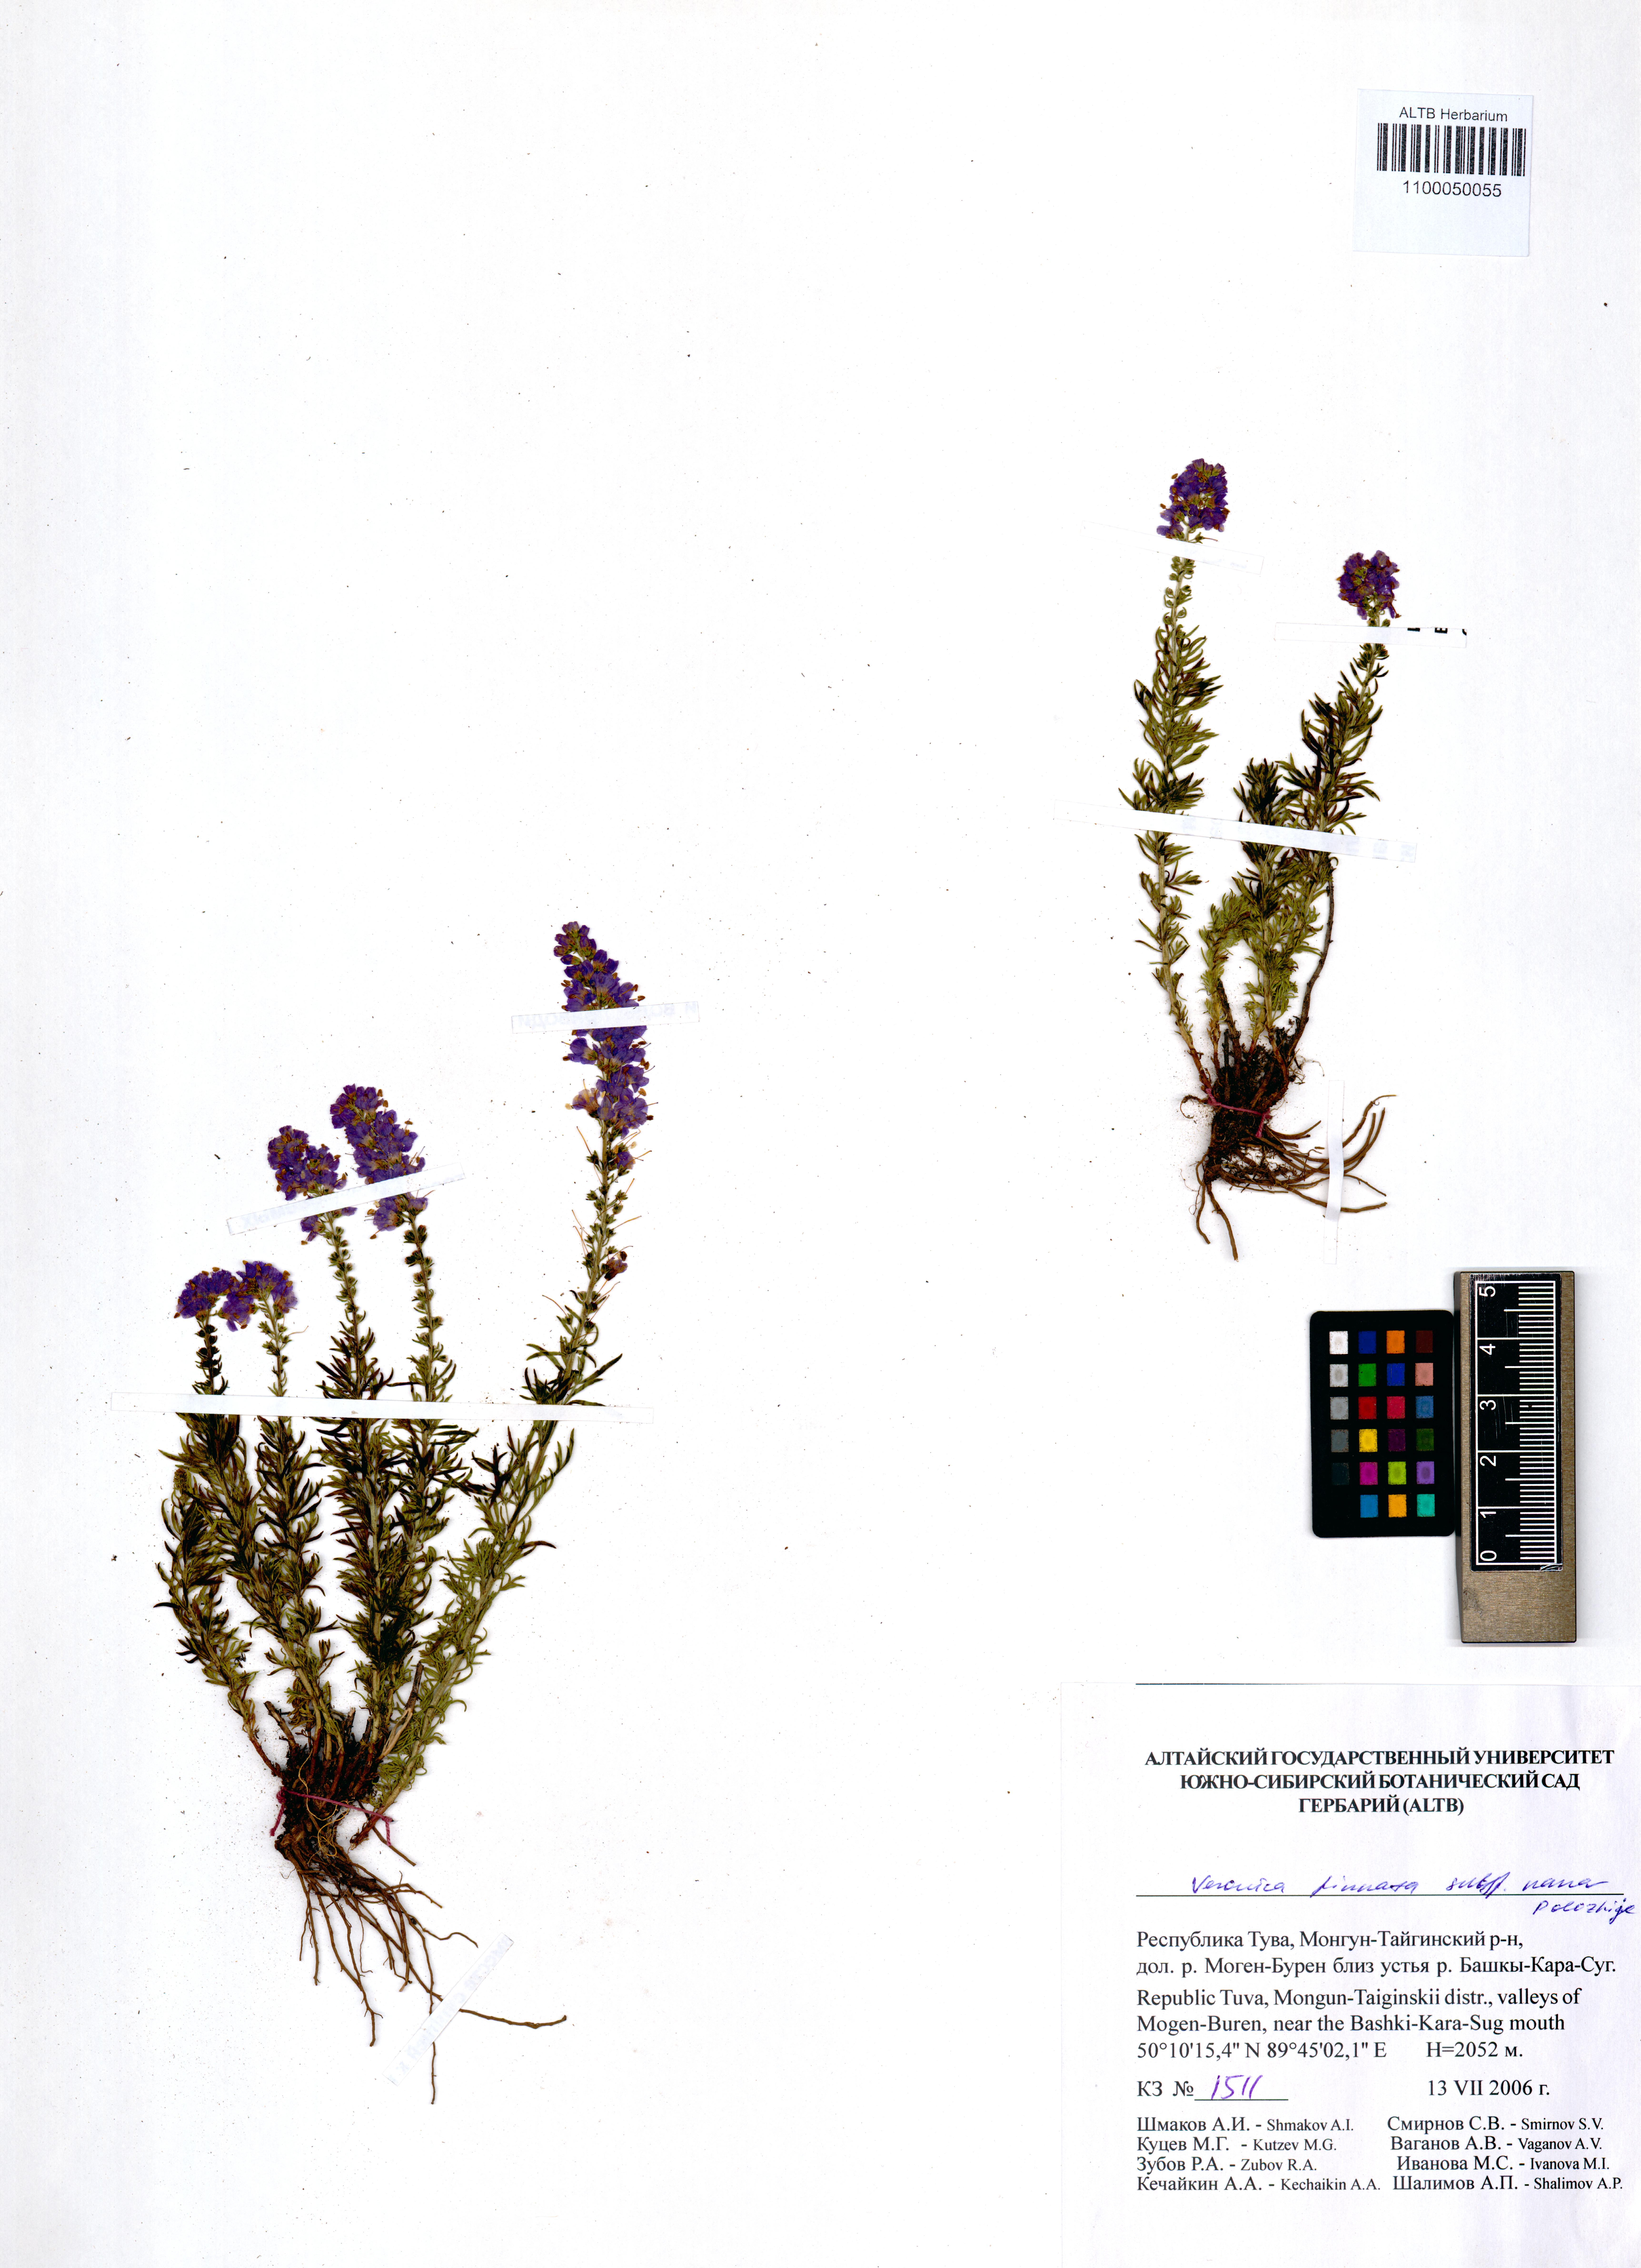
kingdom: Plantae
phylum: Tracheophyta
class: Magnoliopsida
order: Lamiales
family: Plantaginaceae
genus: Veronica
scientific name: Veronica pinnata
